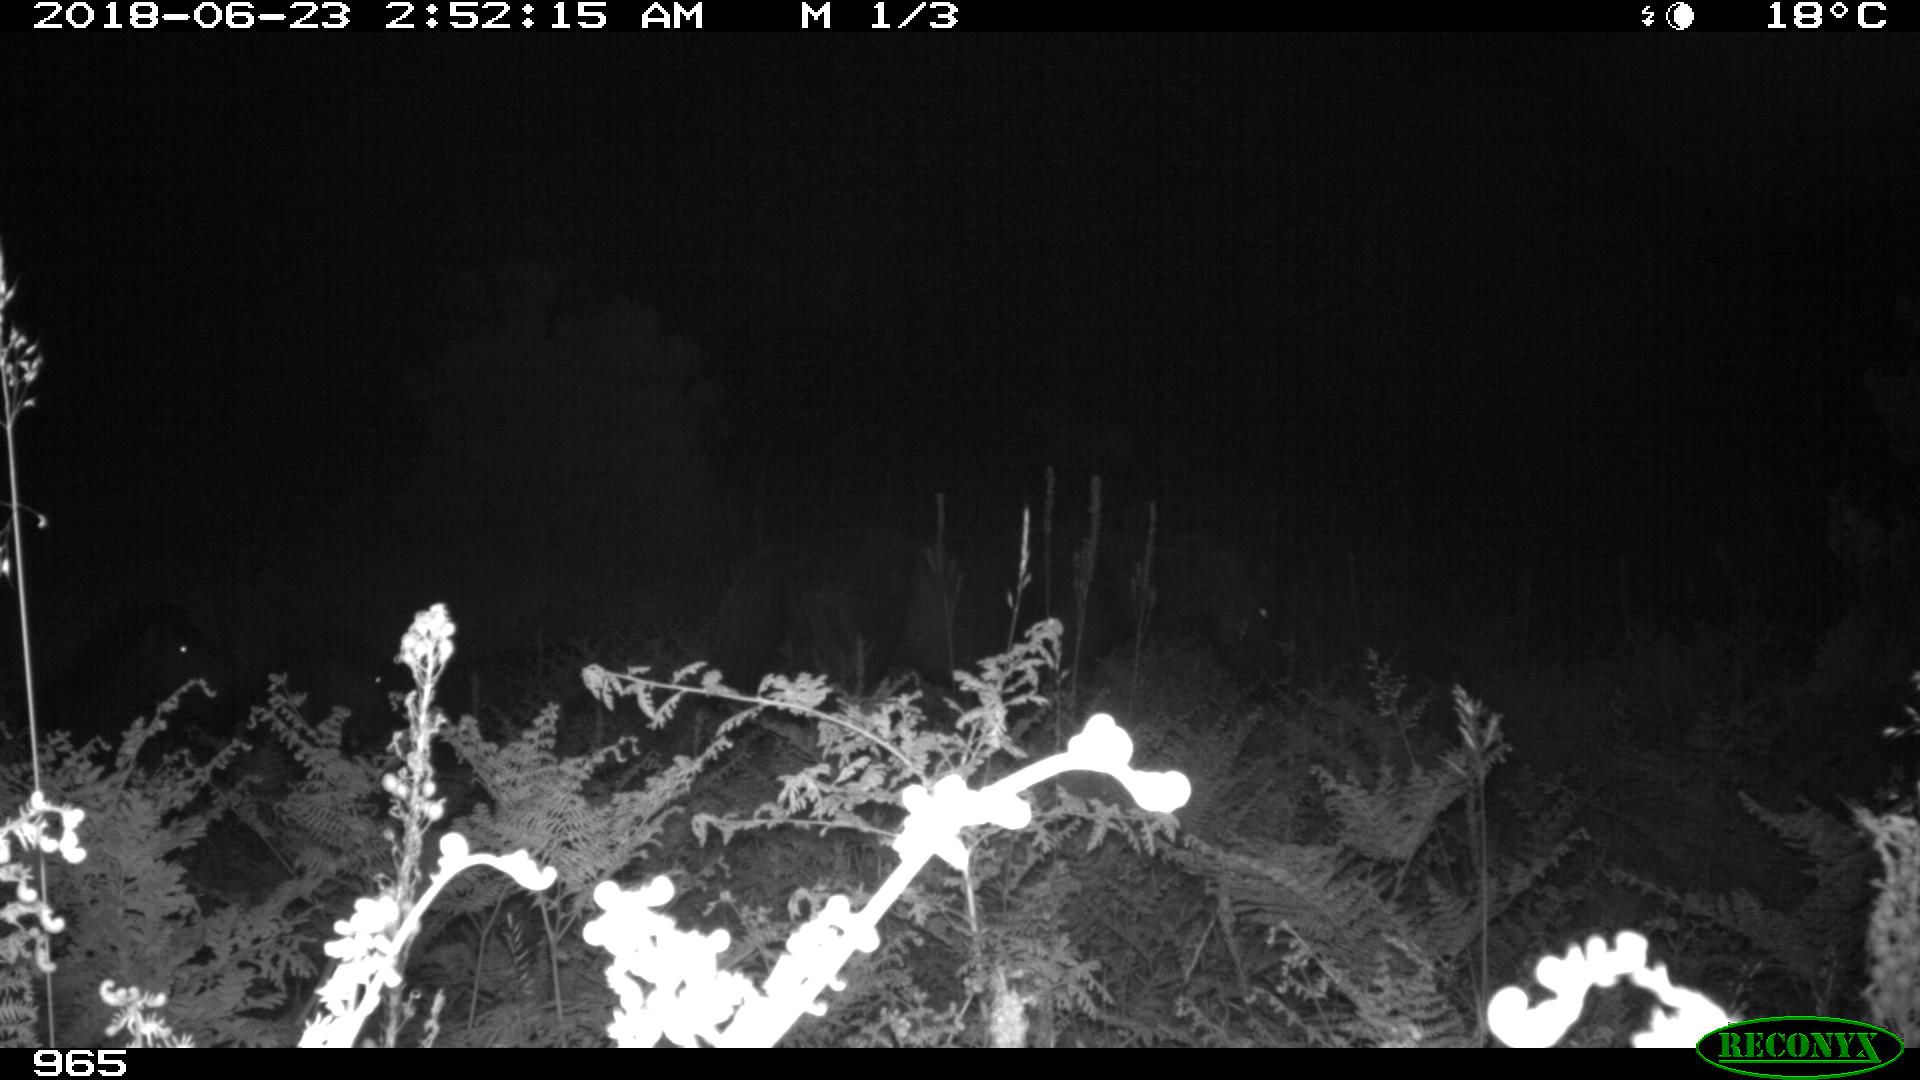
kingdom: Animalia
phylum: Chordata
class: Mammalia
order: Perissodactyla
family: Equidae
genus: Equus
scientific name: Equus caballus
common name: Horse
